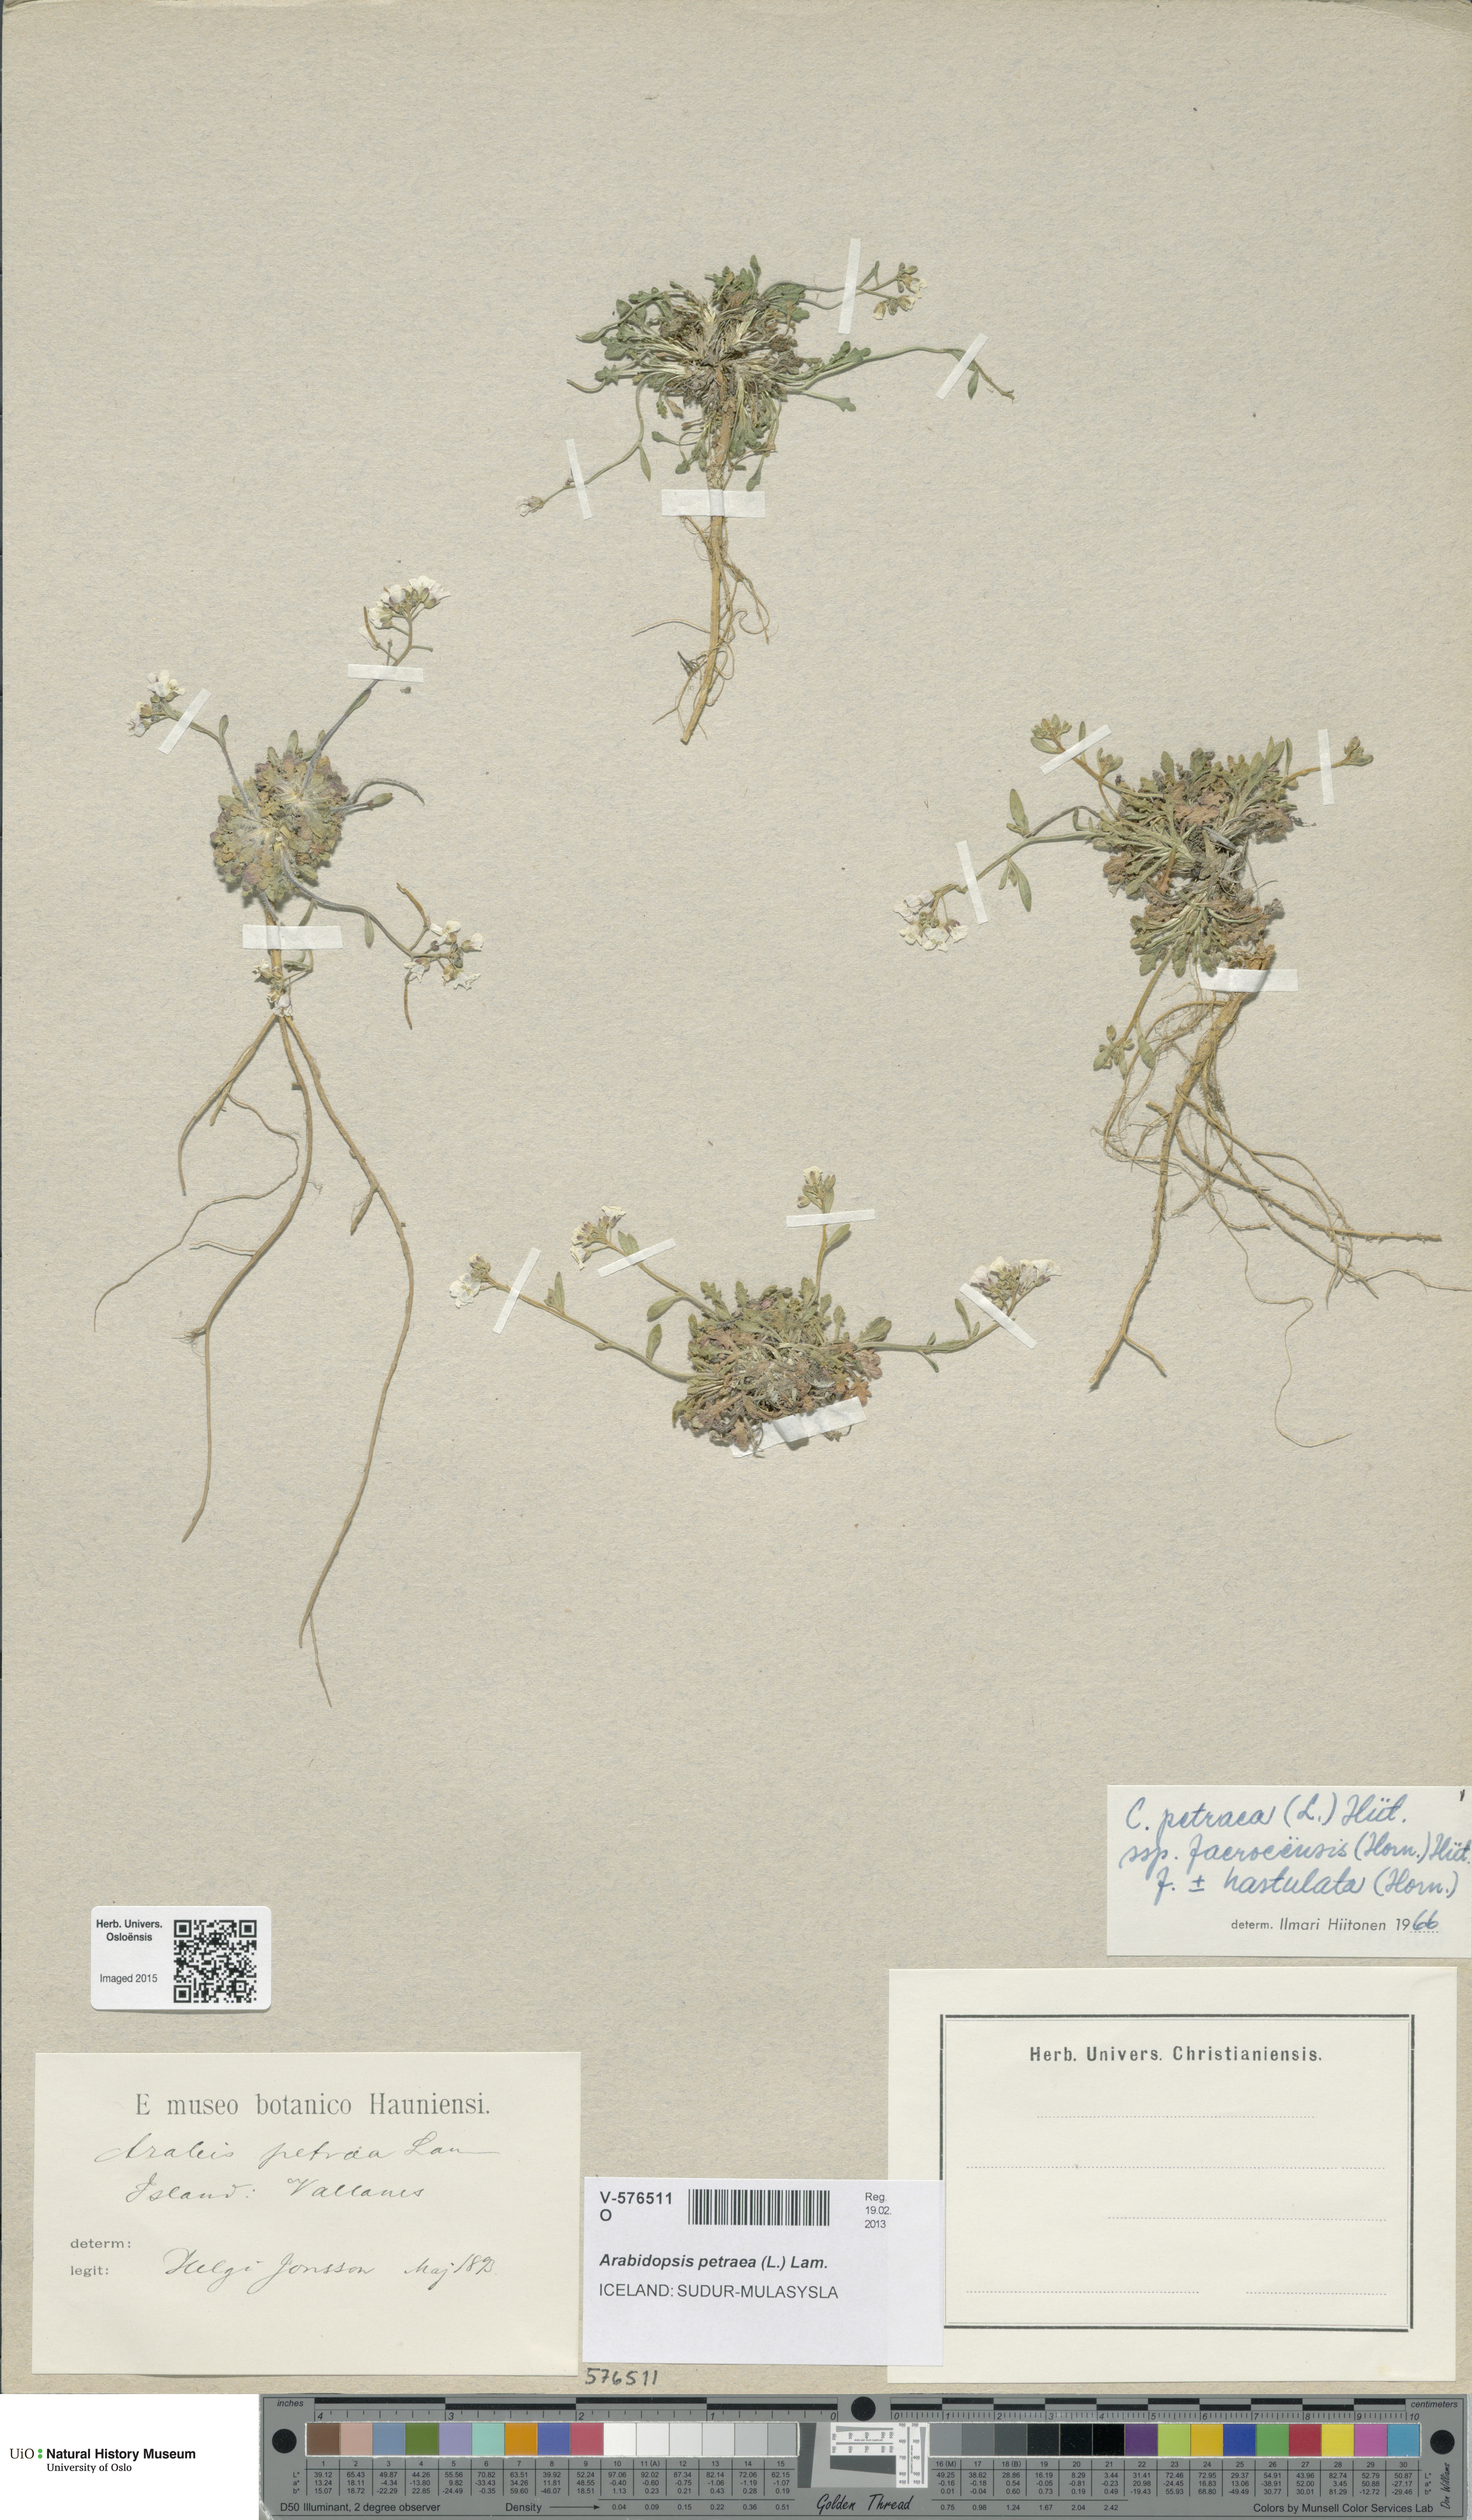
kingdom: Plantae
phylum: Tracheophyta
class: Magnoliopsida
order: Brassicales
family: Brassicaceae
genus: Arabidopsis
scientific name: Arabidopsis petraea
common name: Northern rock-cress
